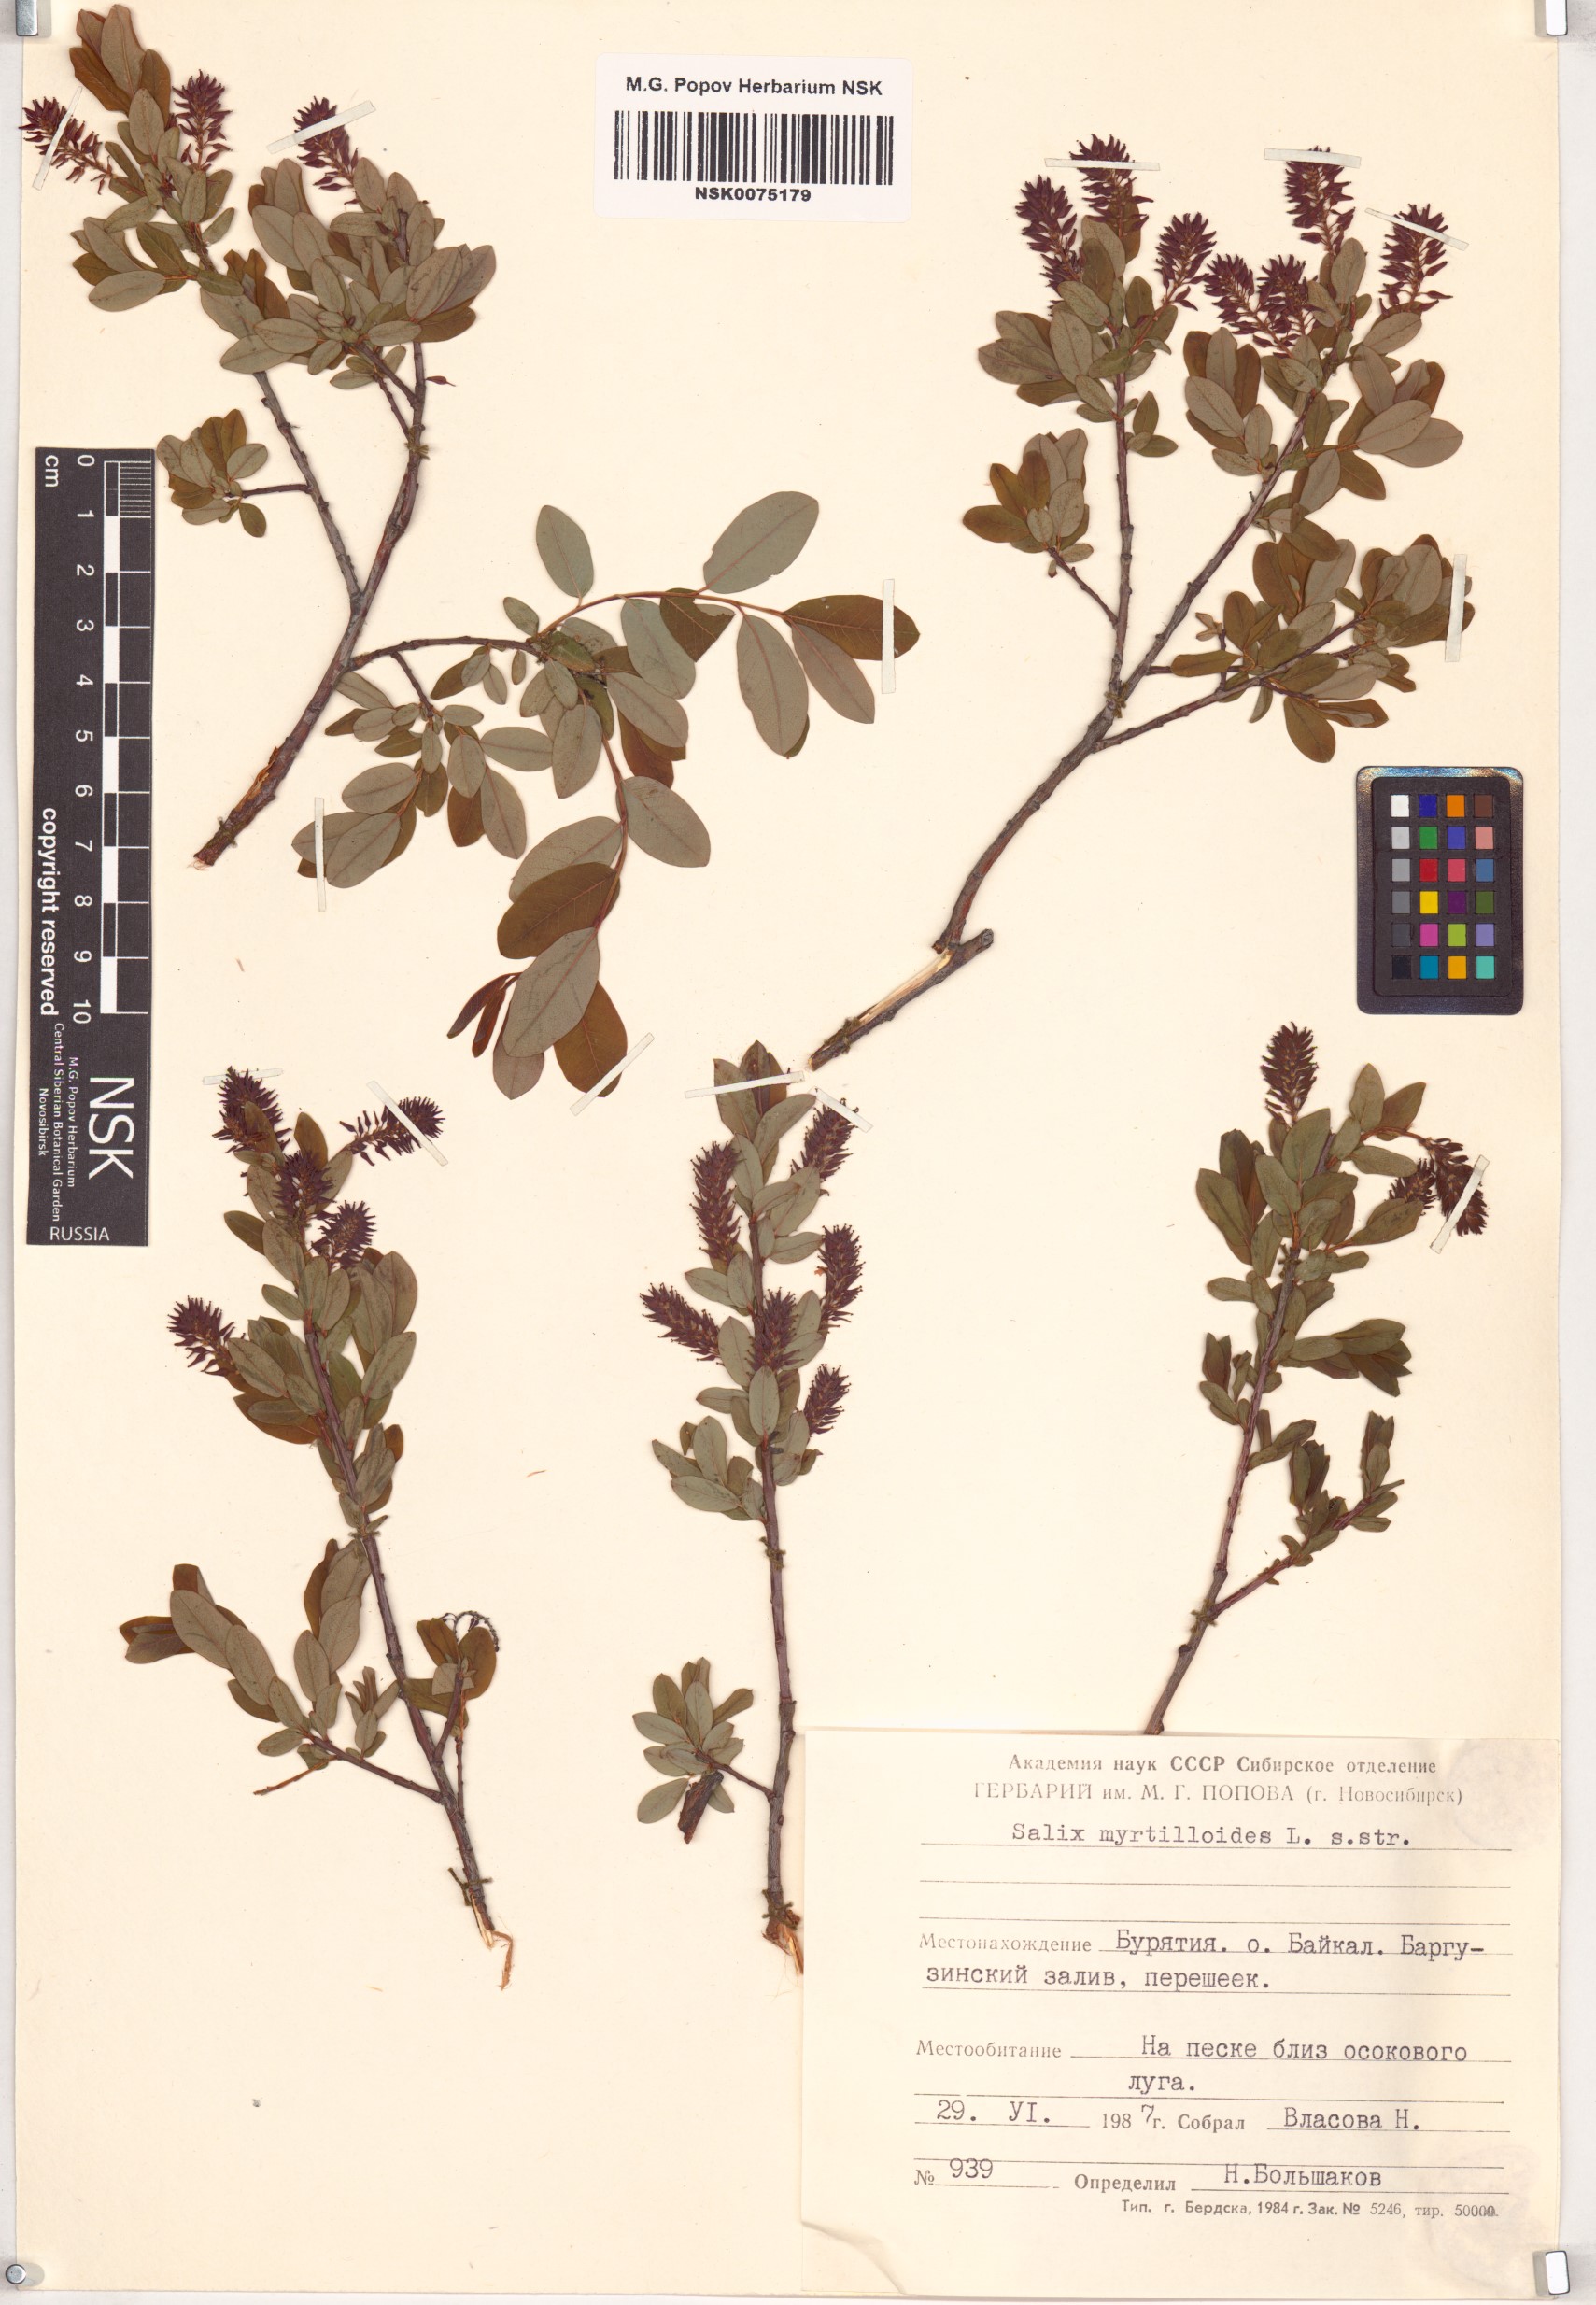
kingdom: Plantae
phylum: Tracheophyta
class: Magnoliopsida
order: Malpighiales
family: Salicaceae
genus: Salix
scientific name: Salix myrtilloides
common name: Myrtle-leaved willow
